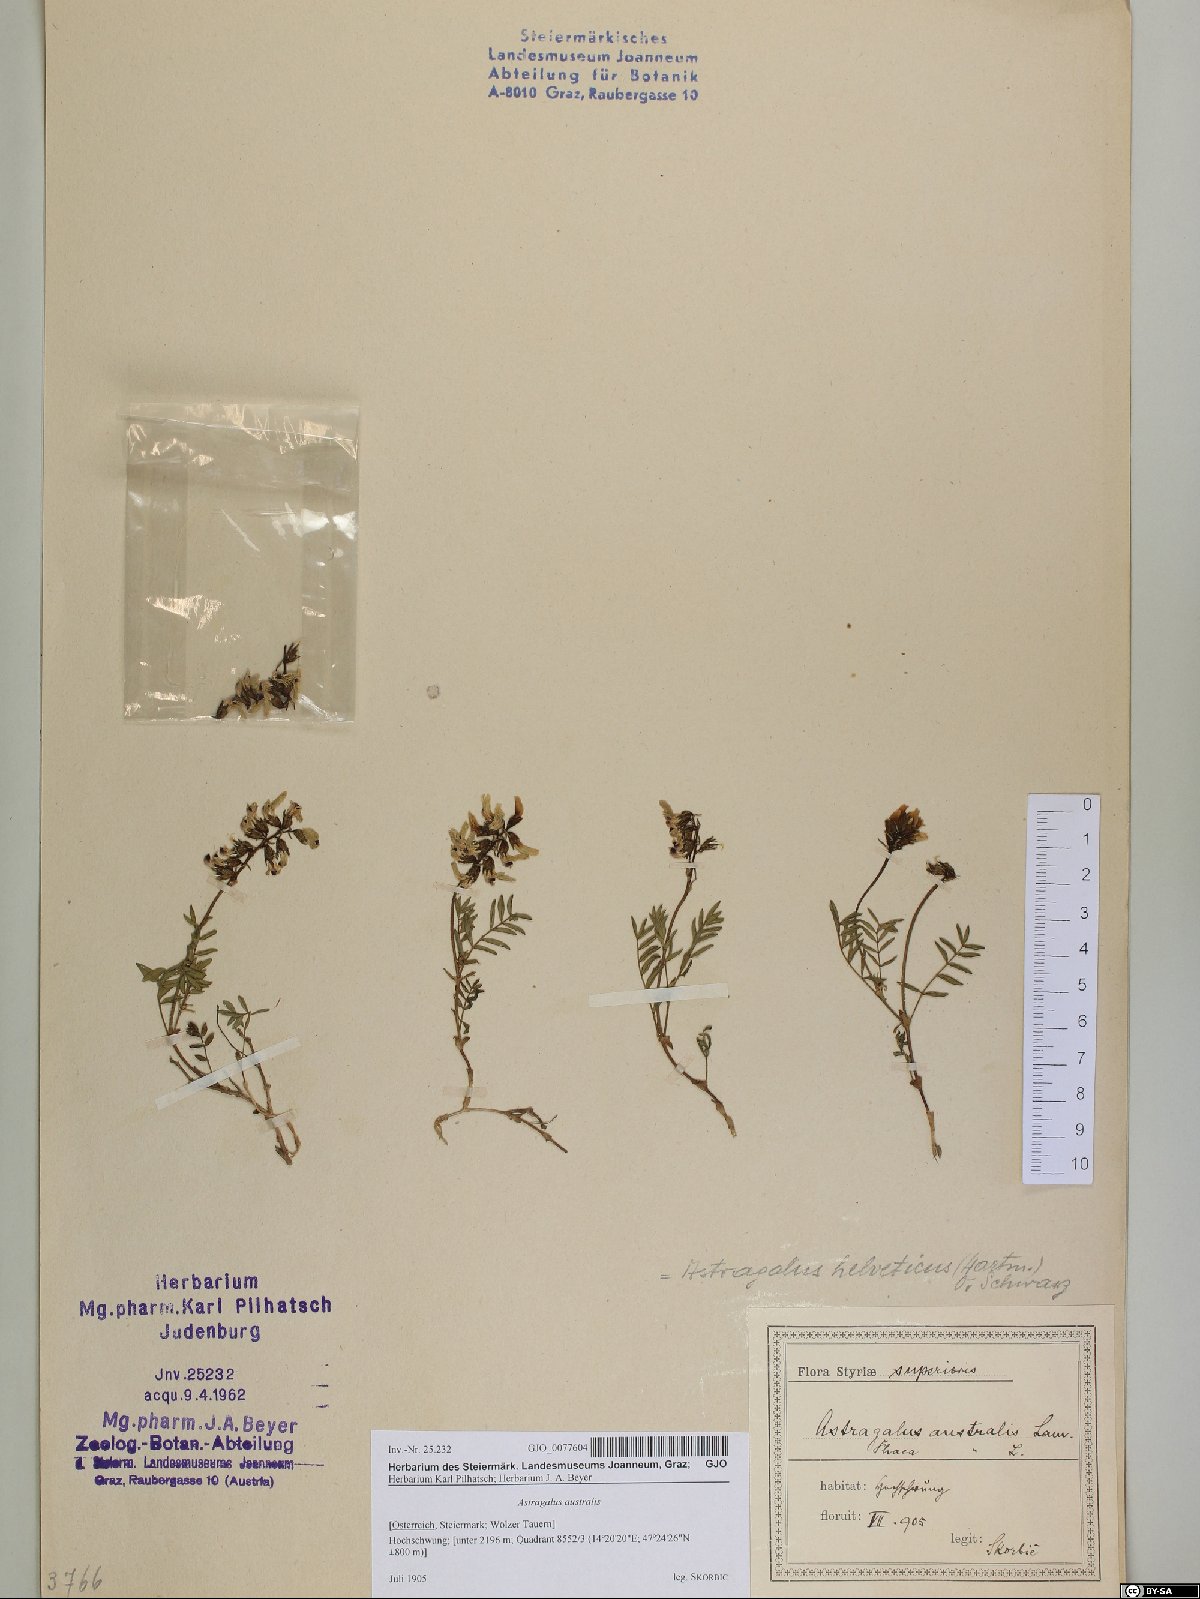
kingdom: Plantae
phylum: Tracheophyta
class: Magnoliopsida
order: Fabales
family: Fabaceae
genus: Astragalus
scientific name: Astragalus australis
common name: Indian milk-vetch
